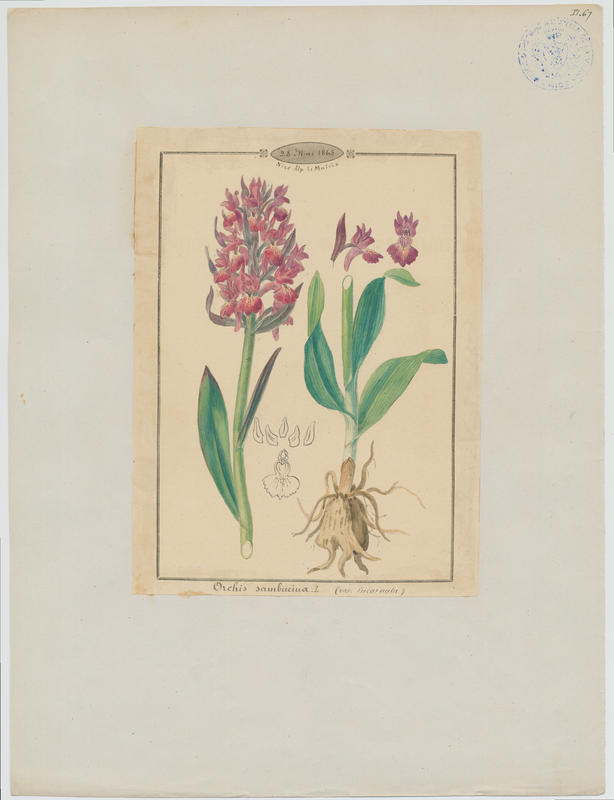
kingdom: Plantae
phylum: Tracheophyta
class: Liliopsida
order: Asparagales
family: Orchidaceae
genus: Dactylorhiza
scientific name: Dactylorhiza sambucina
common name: Elder-flowered orchid
